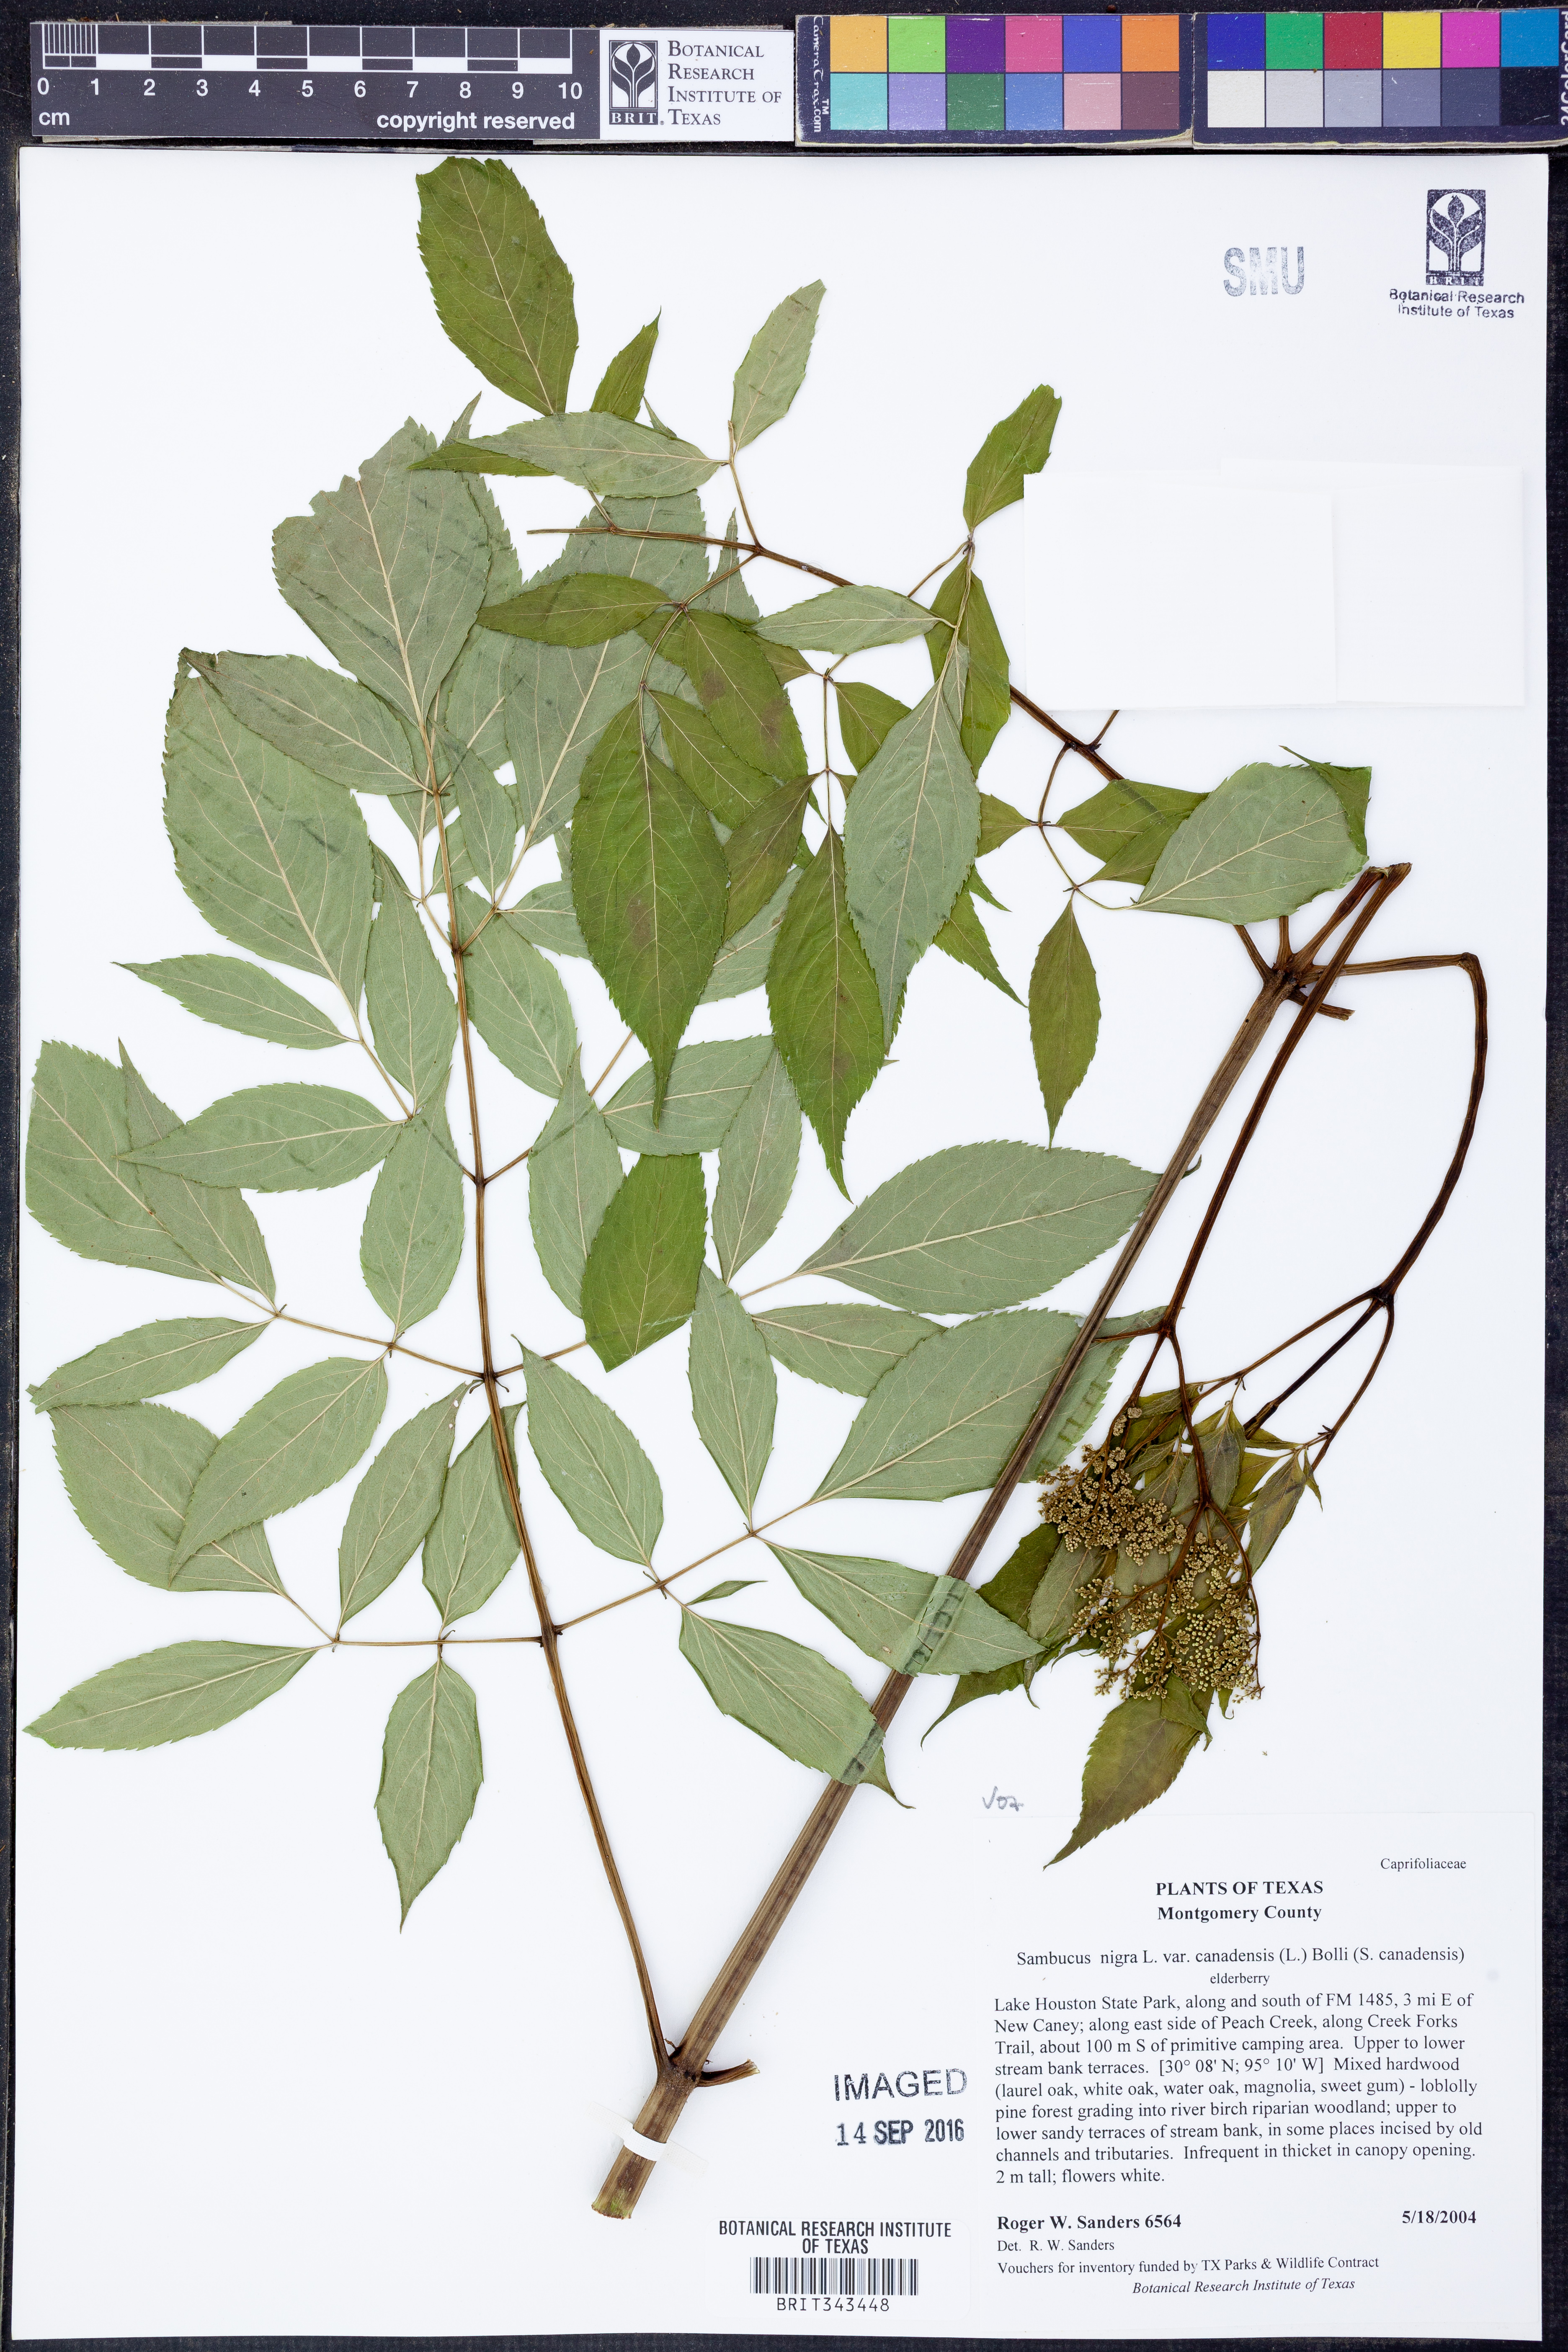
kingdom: Plantae
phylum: Tracheophyta
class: Magnoliopsida
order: Dipsacales
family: Viburnaceae
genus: Sambucus
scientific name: Sambucus canadensis
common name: American elder
